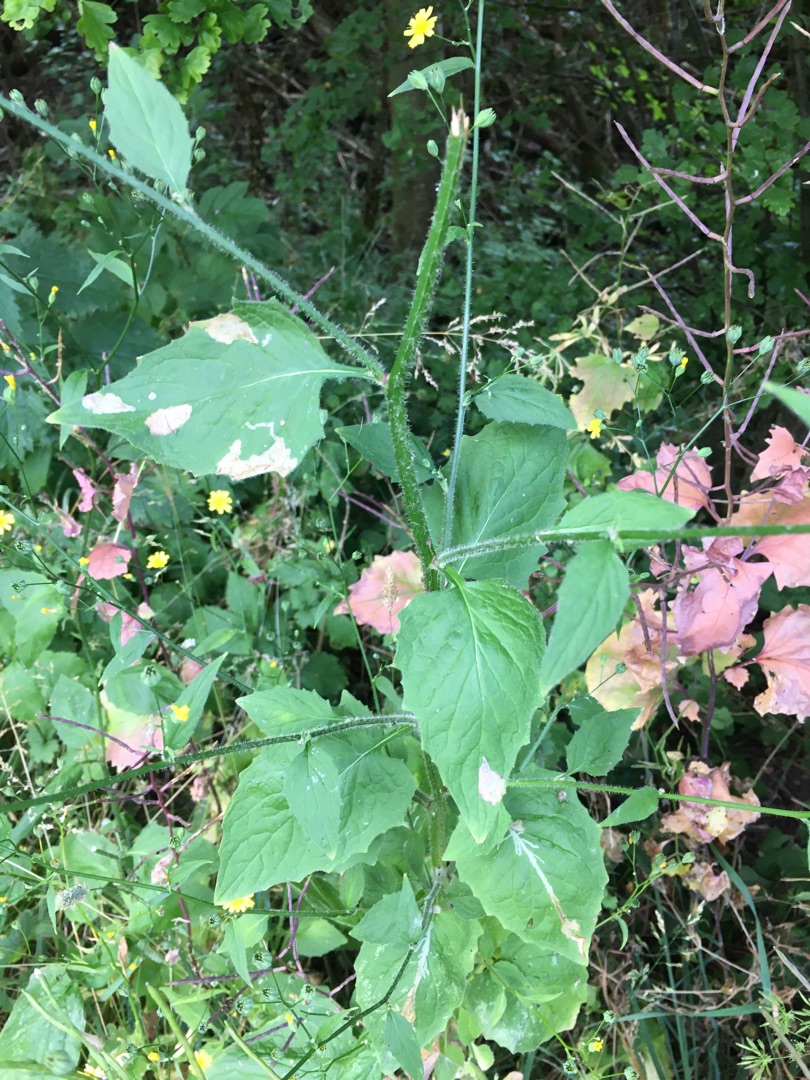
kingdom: Plantae
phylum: Tracheophyta
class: Magnoliopsida
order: Asterales
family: Asteraceae
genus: Lapsana
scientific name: Lapsana communis
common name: Haremad
